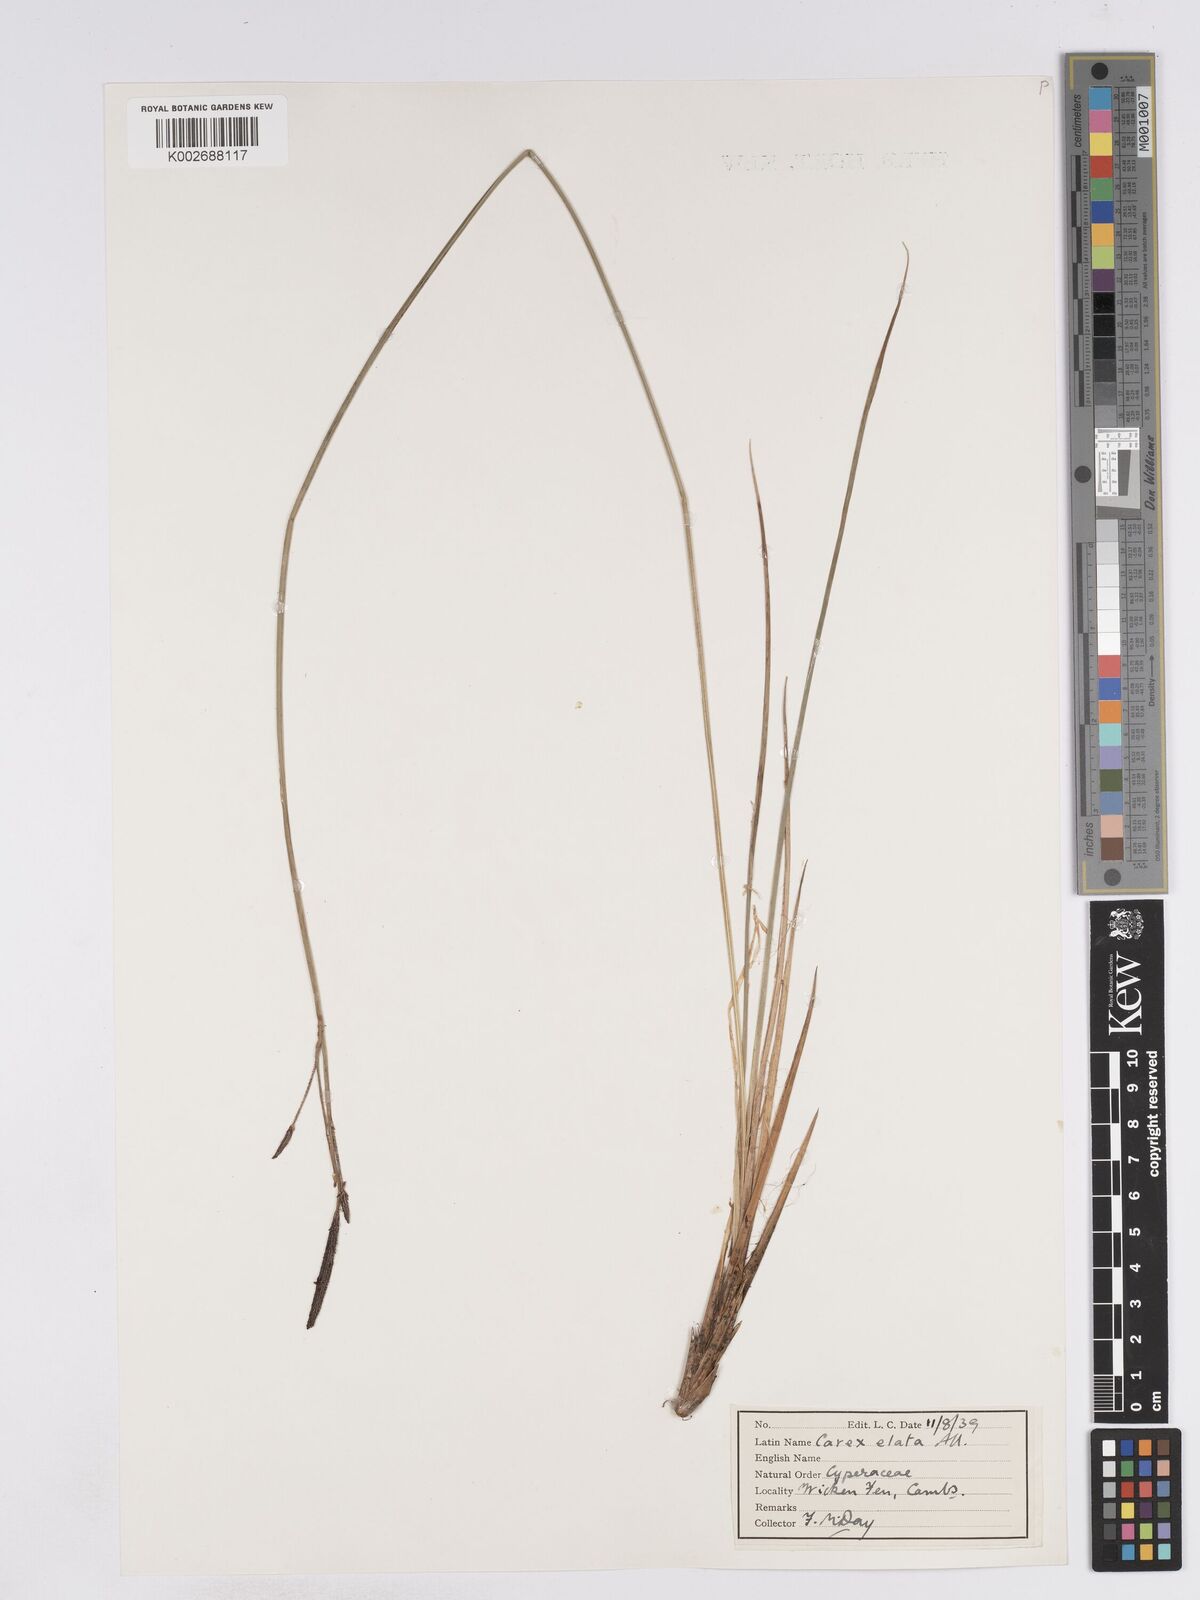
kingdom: Plantae
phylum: Tracheophyta
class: Liliopsida
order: Poales
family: Cyperaceae
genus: Carex
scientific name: Carex elata
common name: Tufted sedge
